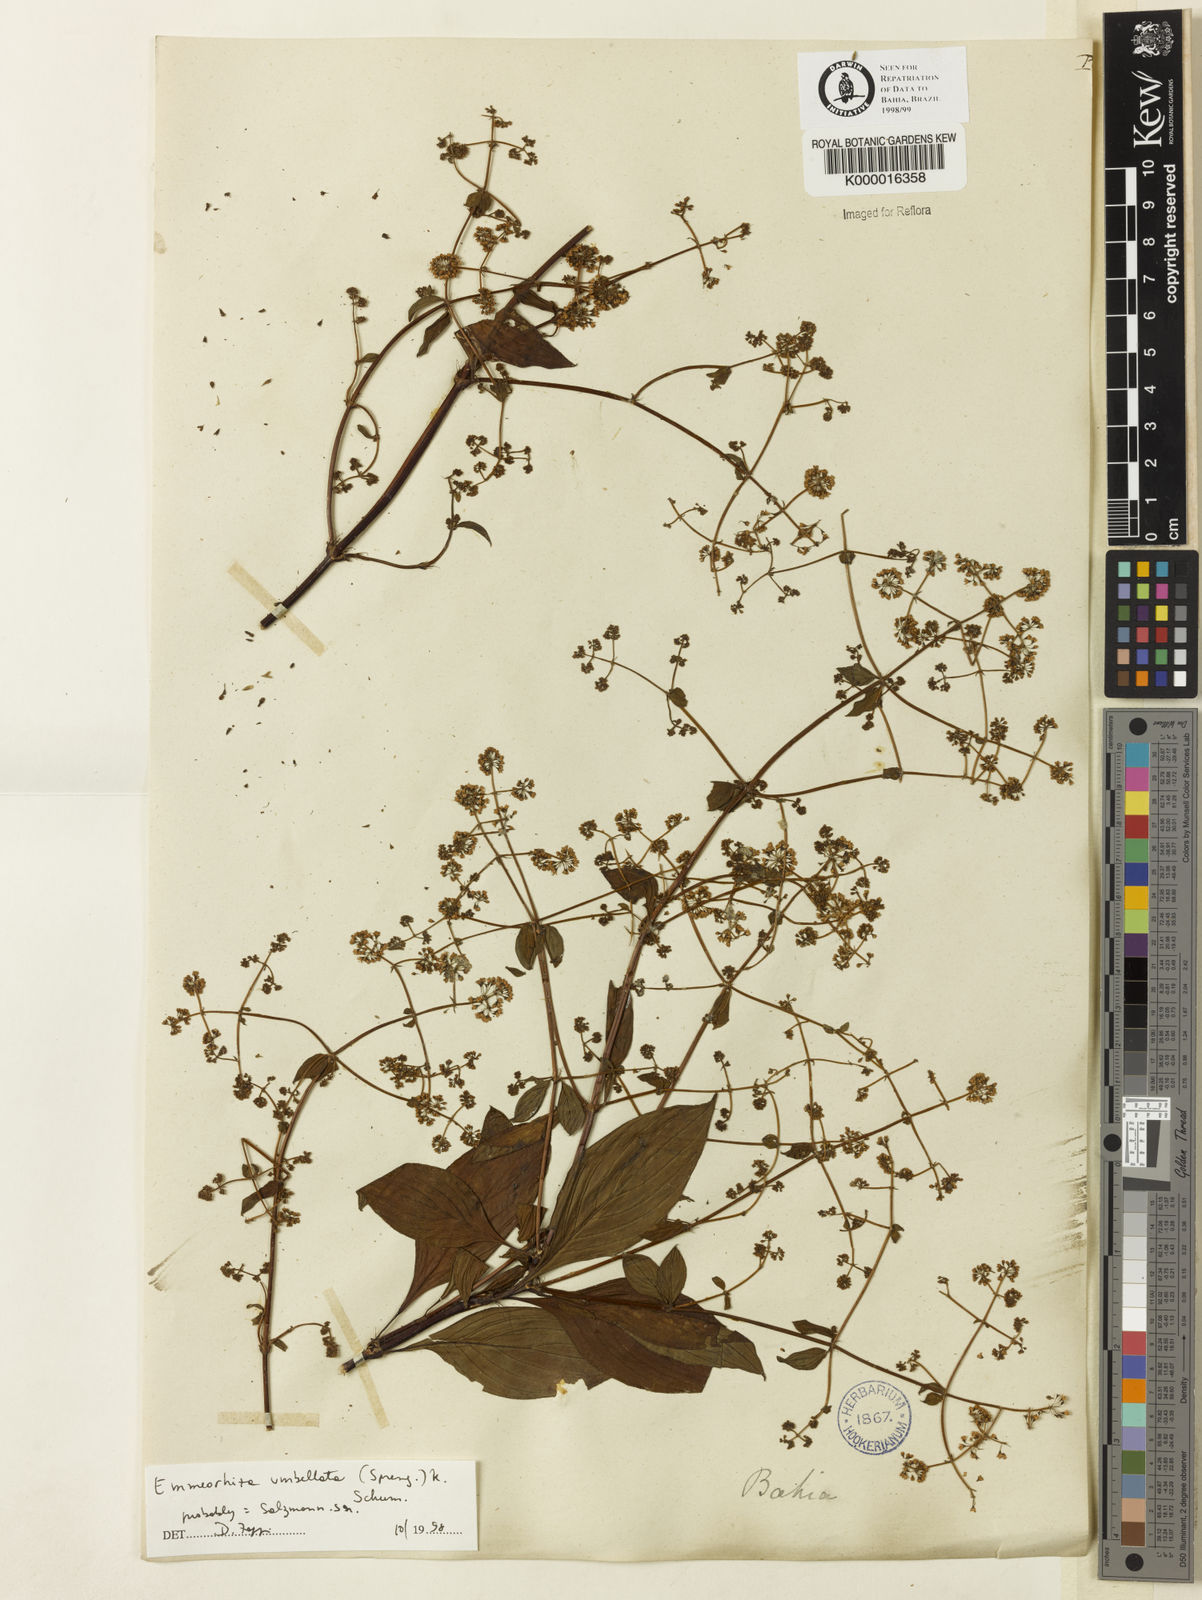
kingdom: Plantae
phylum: Tracheophyta
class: Magnoliopsida
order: Gentianales
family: Rubiaceae
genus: Emmeorhiza
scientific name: Emmeorhiza umbellata
